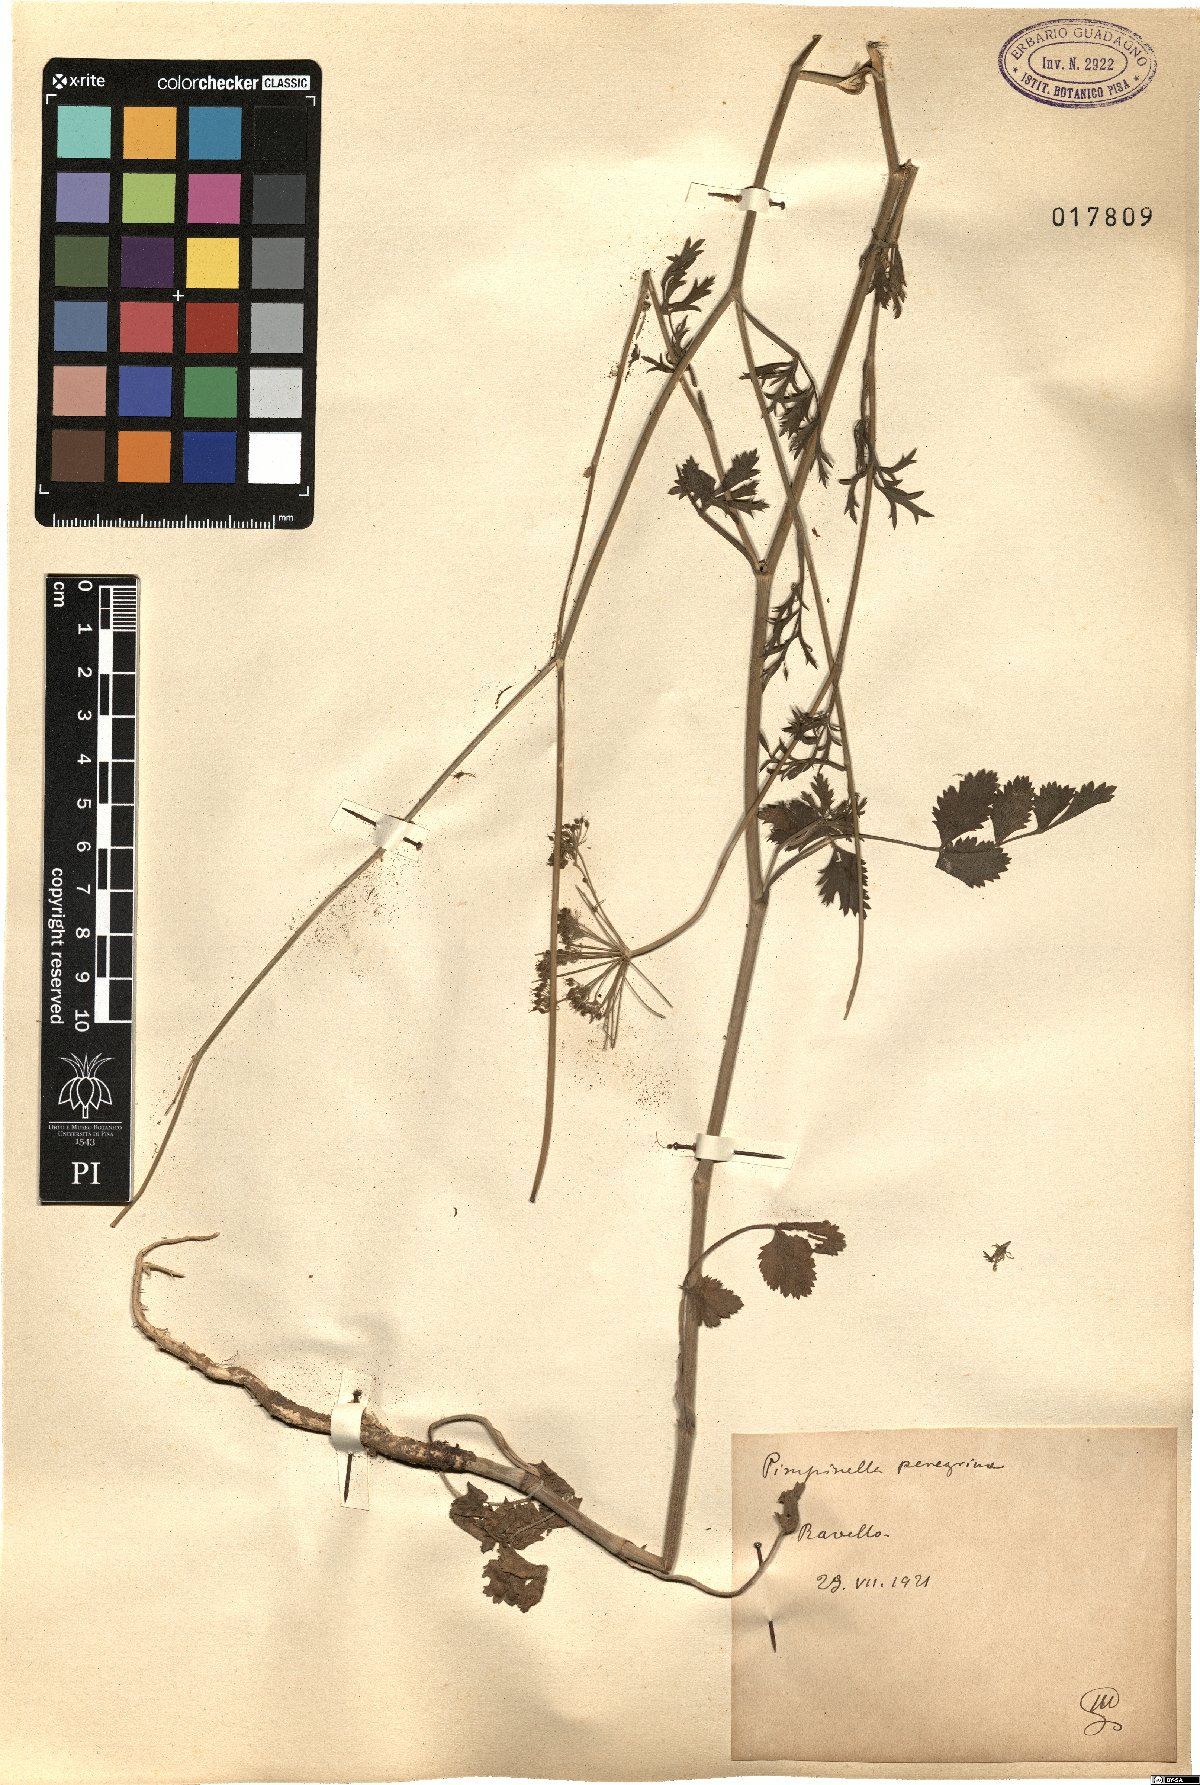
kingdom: Plantae
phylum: Tracheophyta
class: Magnoliopsida
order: Apiales
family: Apiaceae
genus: Pimpinella
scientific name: Pimpinella peregrina
